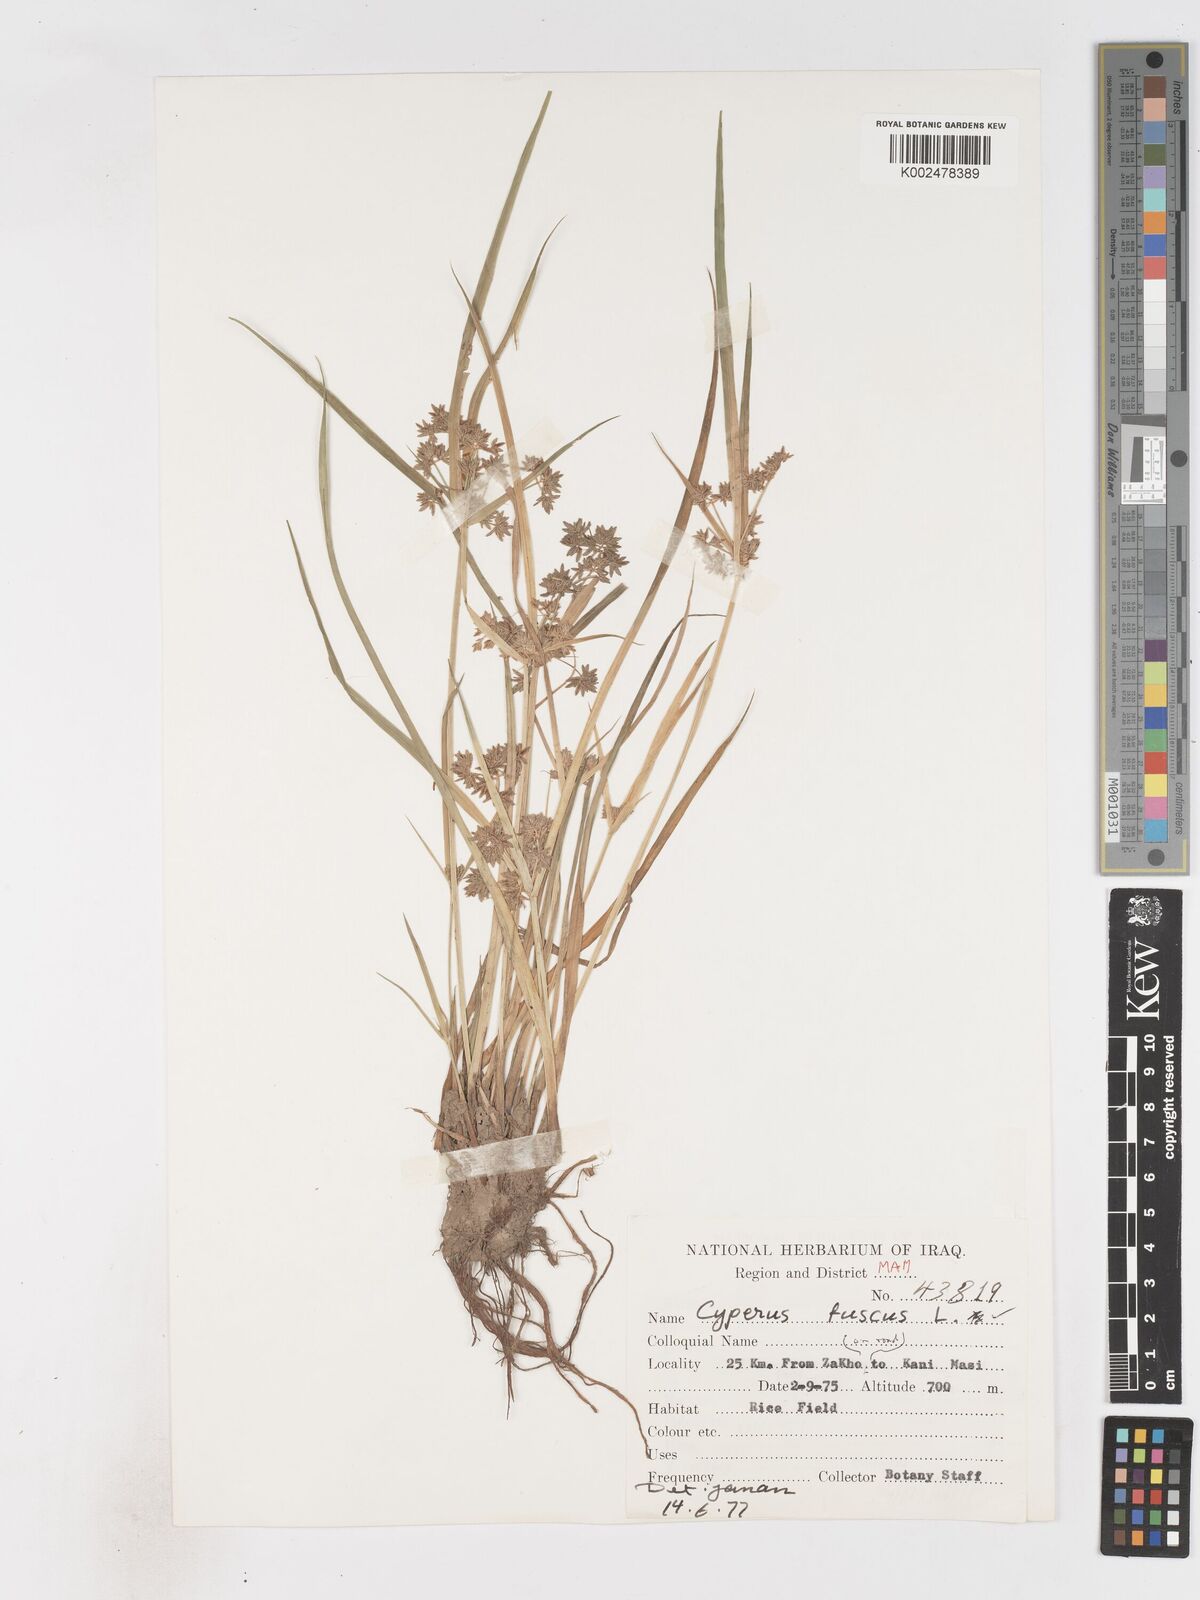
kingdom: Plantae
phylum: Tracheophyta
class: Liliopsida
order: Poales
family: Cyperaceae
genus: Cyperus
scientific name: Cyperus fuscus
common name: Brown galingale
